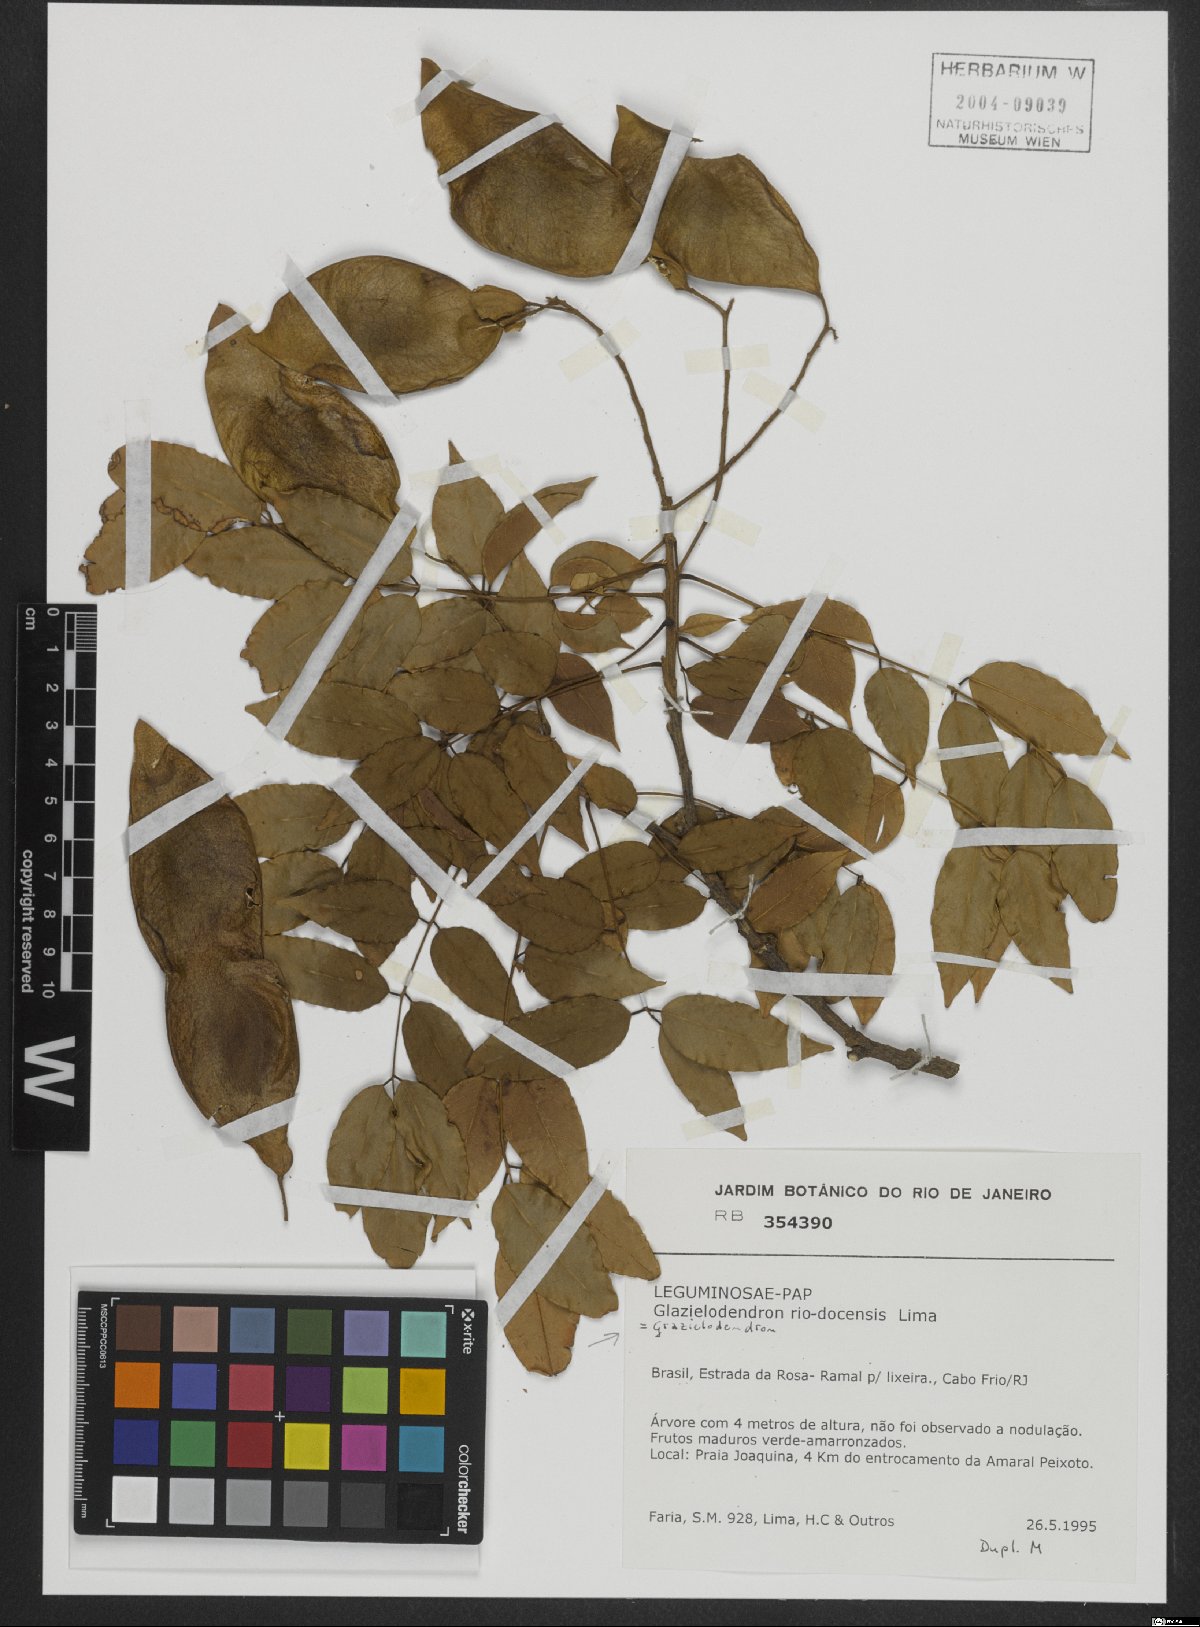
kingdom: Plantae
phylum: Tracheophyta
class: Magnoliopsida
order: Fabales
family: Fabaceae
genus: Grazielodendron
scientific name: Grazielodendron riodocensis
